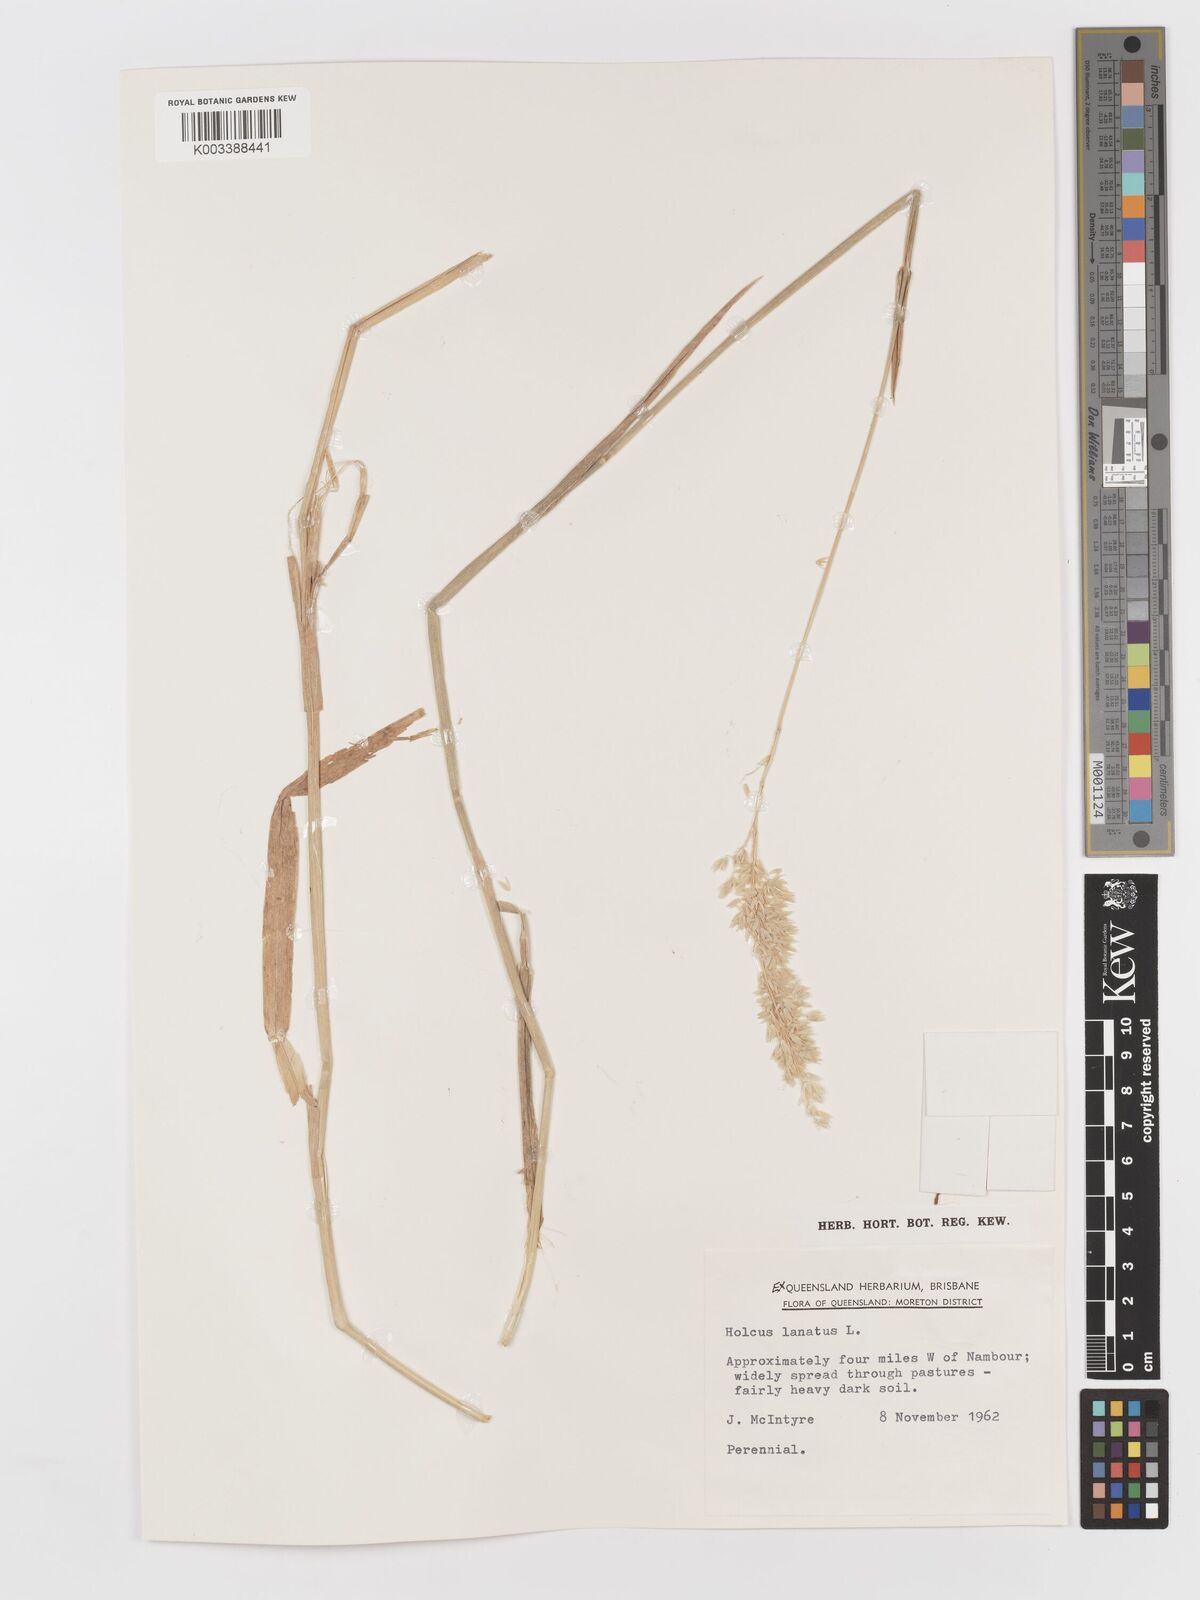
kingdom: Plantae
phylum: Tracheophyta
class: Liliopsida
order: Poales
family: Poaceae
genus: Holcus
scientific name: Holcus lanatus
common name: Yorkshire-fog
